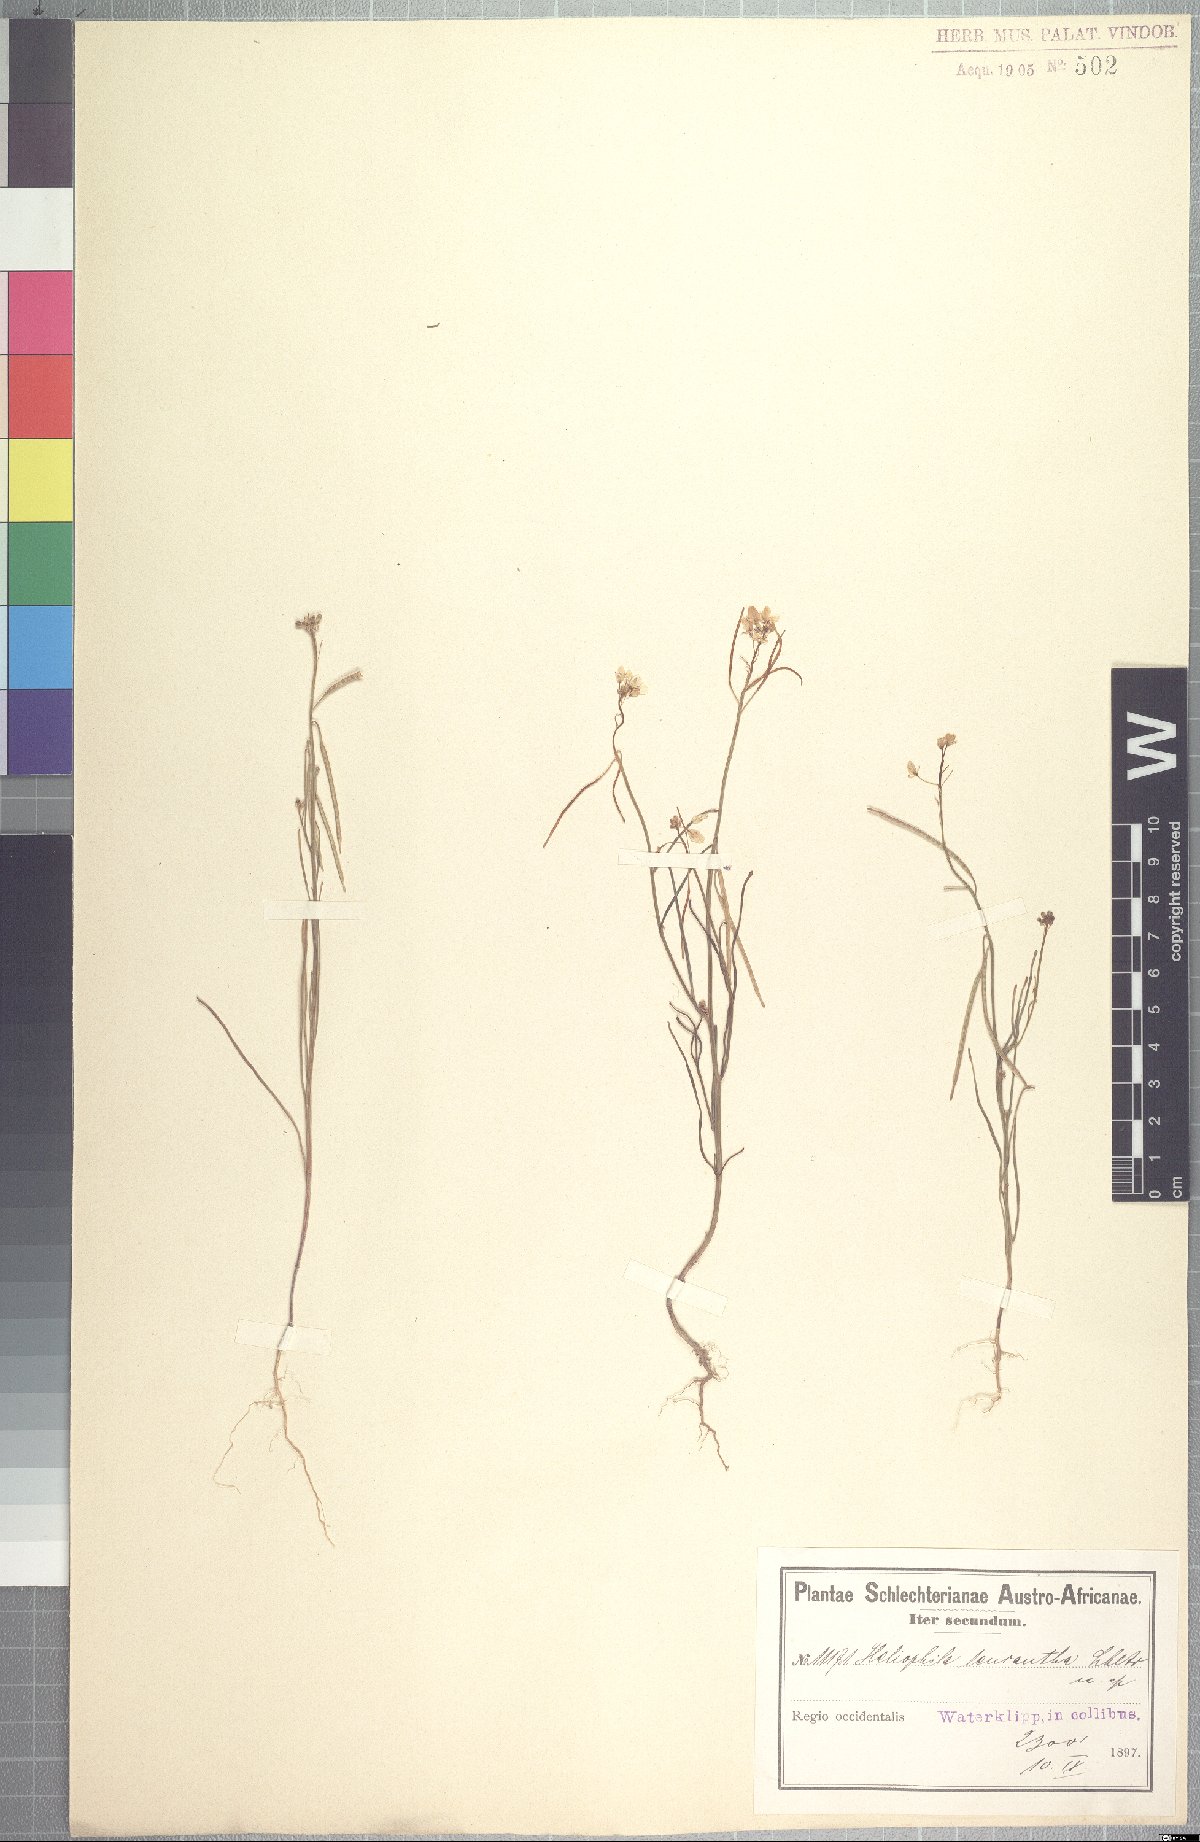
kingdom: Plantae
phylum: Tracheophyta
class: Magnoliopsida
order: Brassicales
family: Brassicaceae
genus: Heliophila
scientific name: Heliophila affinis
